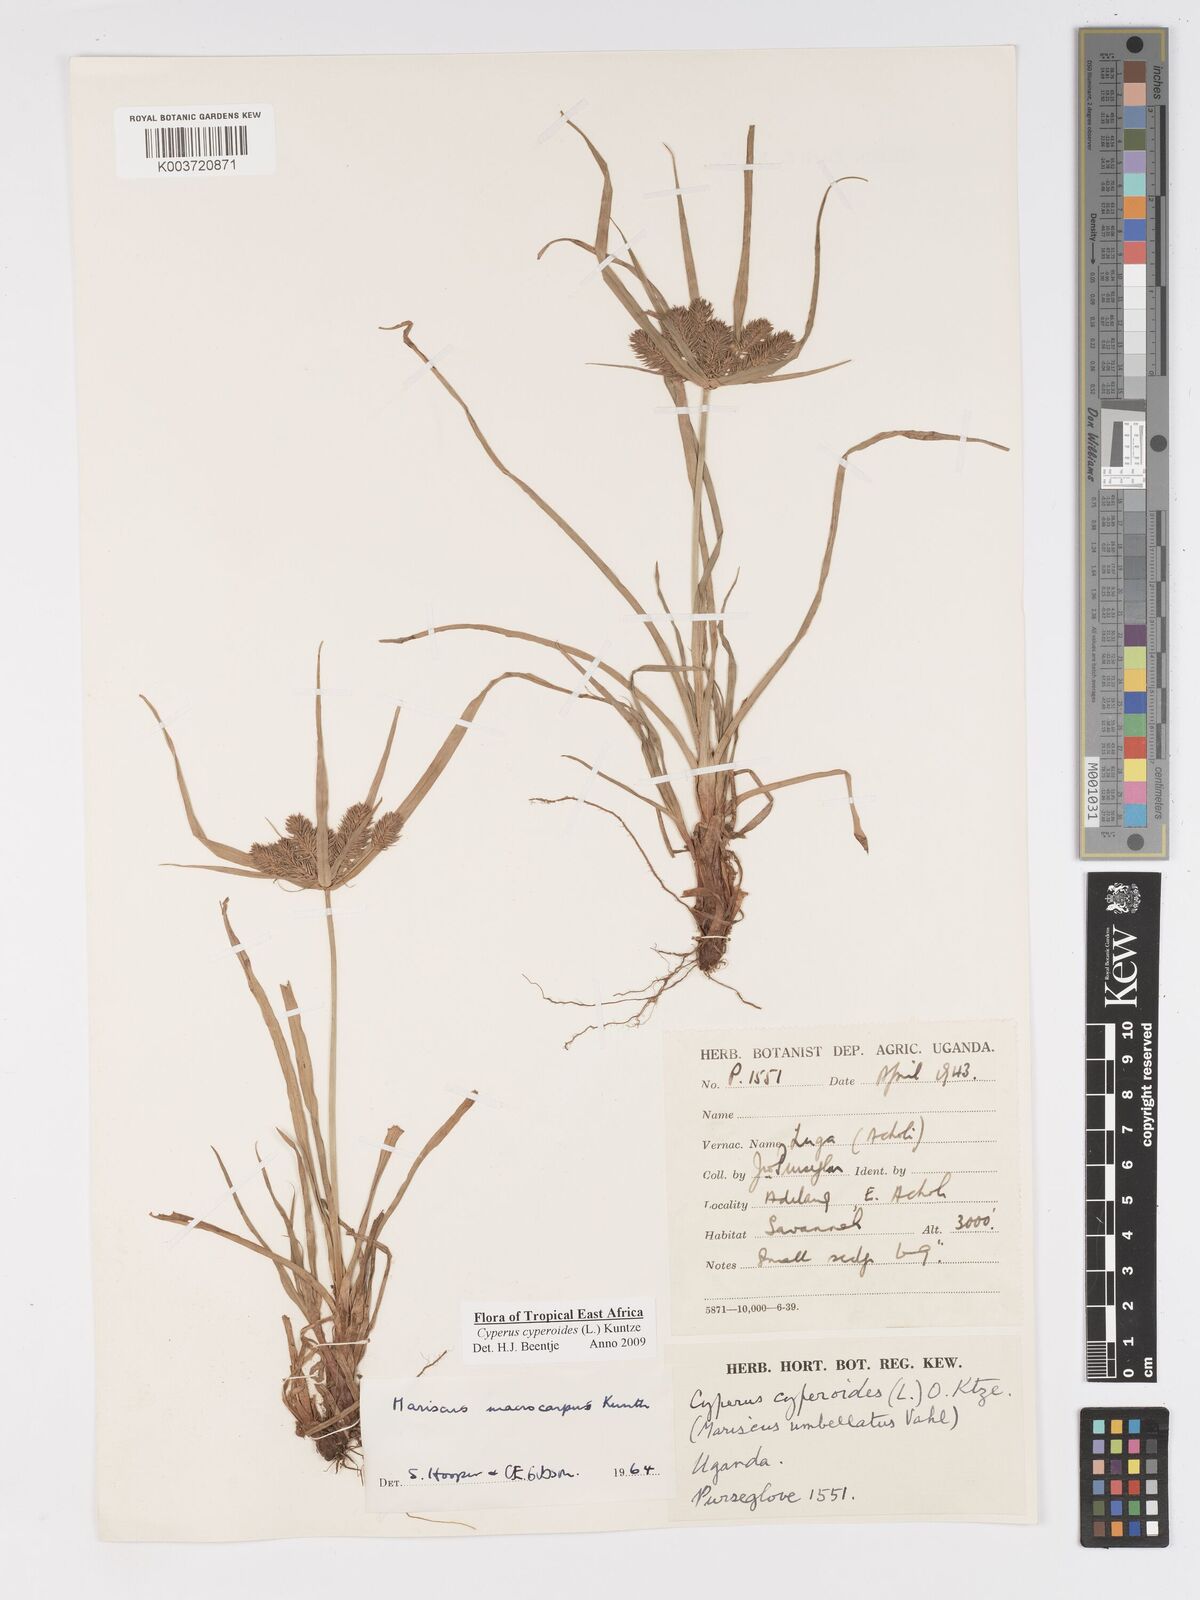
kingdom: Plantae
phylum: Tracheophyta
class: Liliopsida
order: Poales
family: Cyperaceae
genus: Cyperus
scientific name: Cyperus macrocarpus
